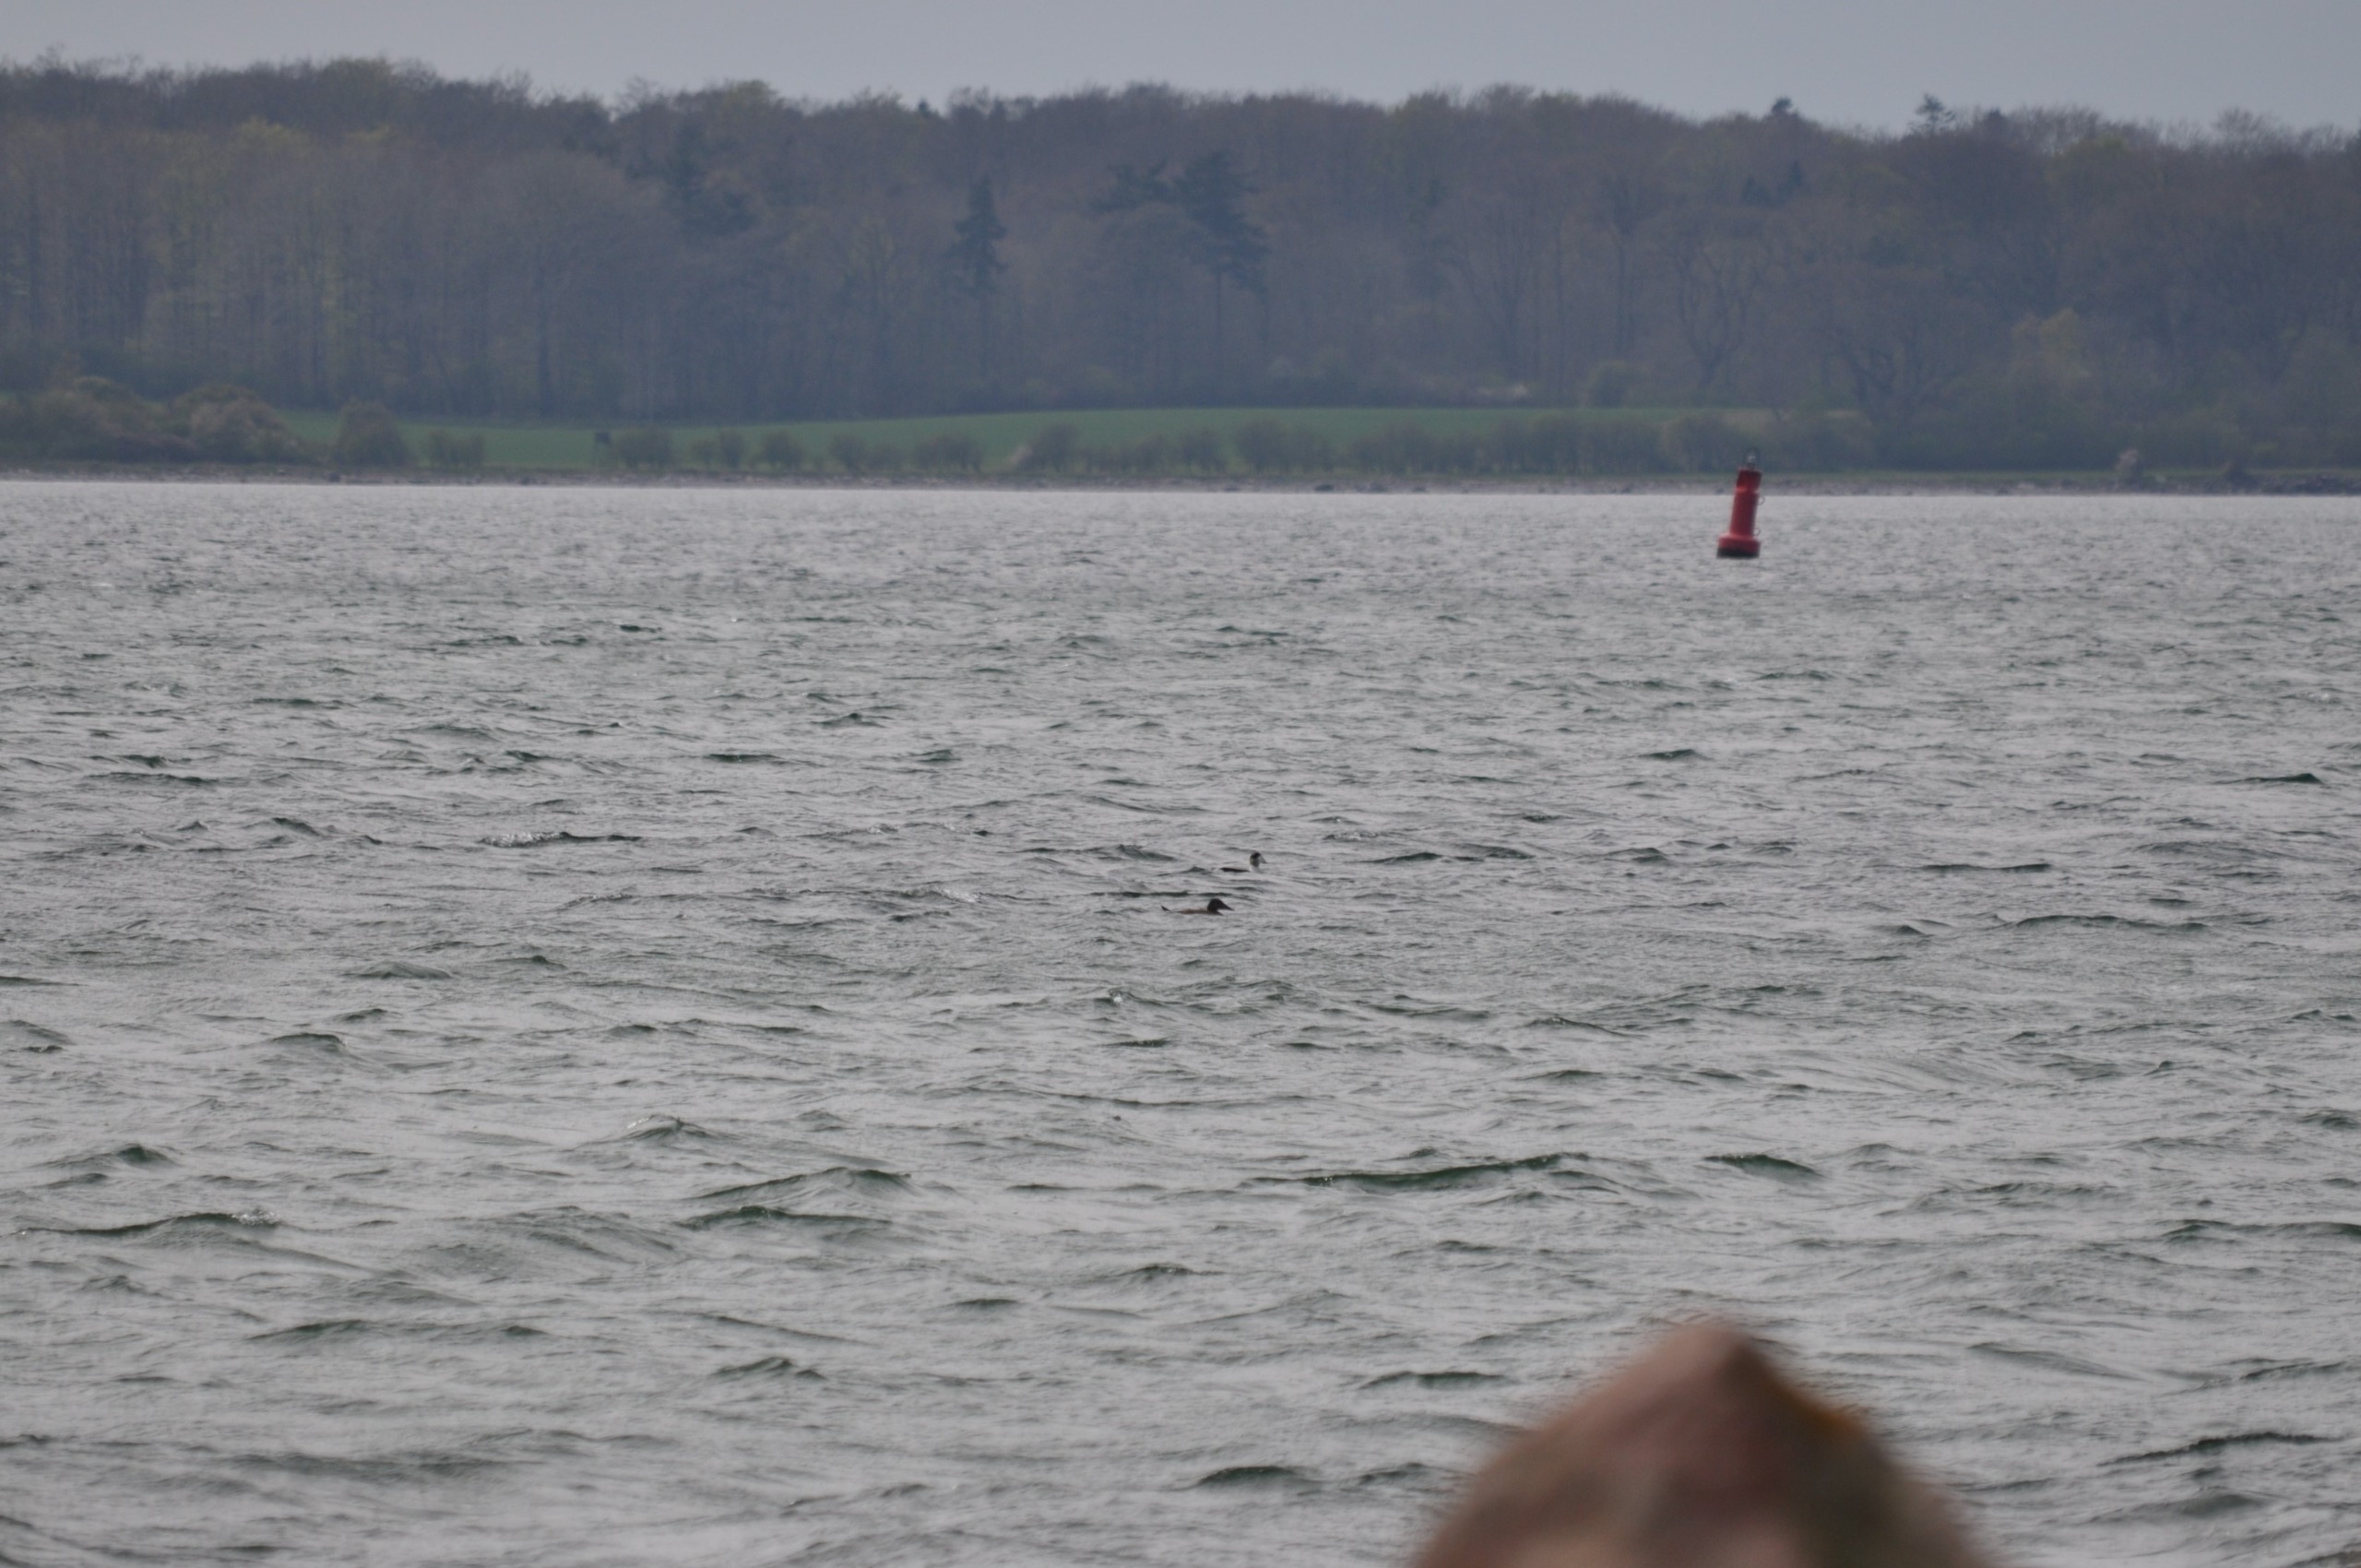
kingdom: Animalia
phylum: Chordata
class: Aves
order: Anseriformes
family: Anatidae
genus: Somateria
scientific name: Somateria mollissima
